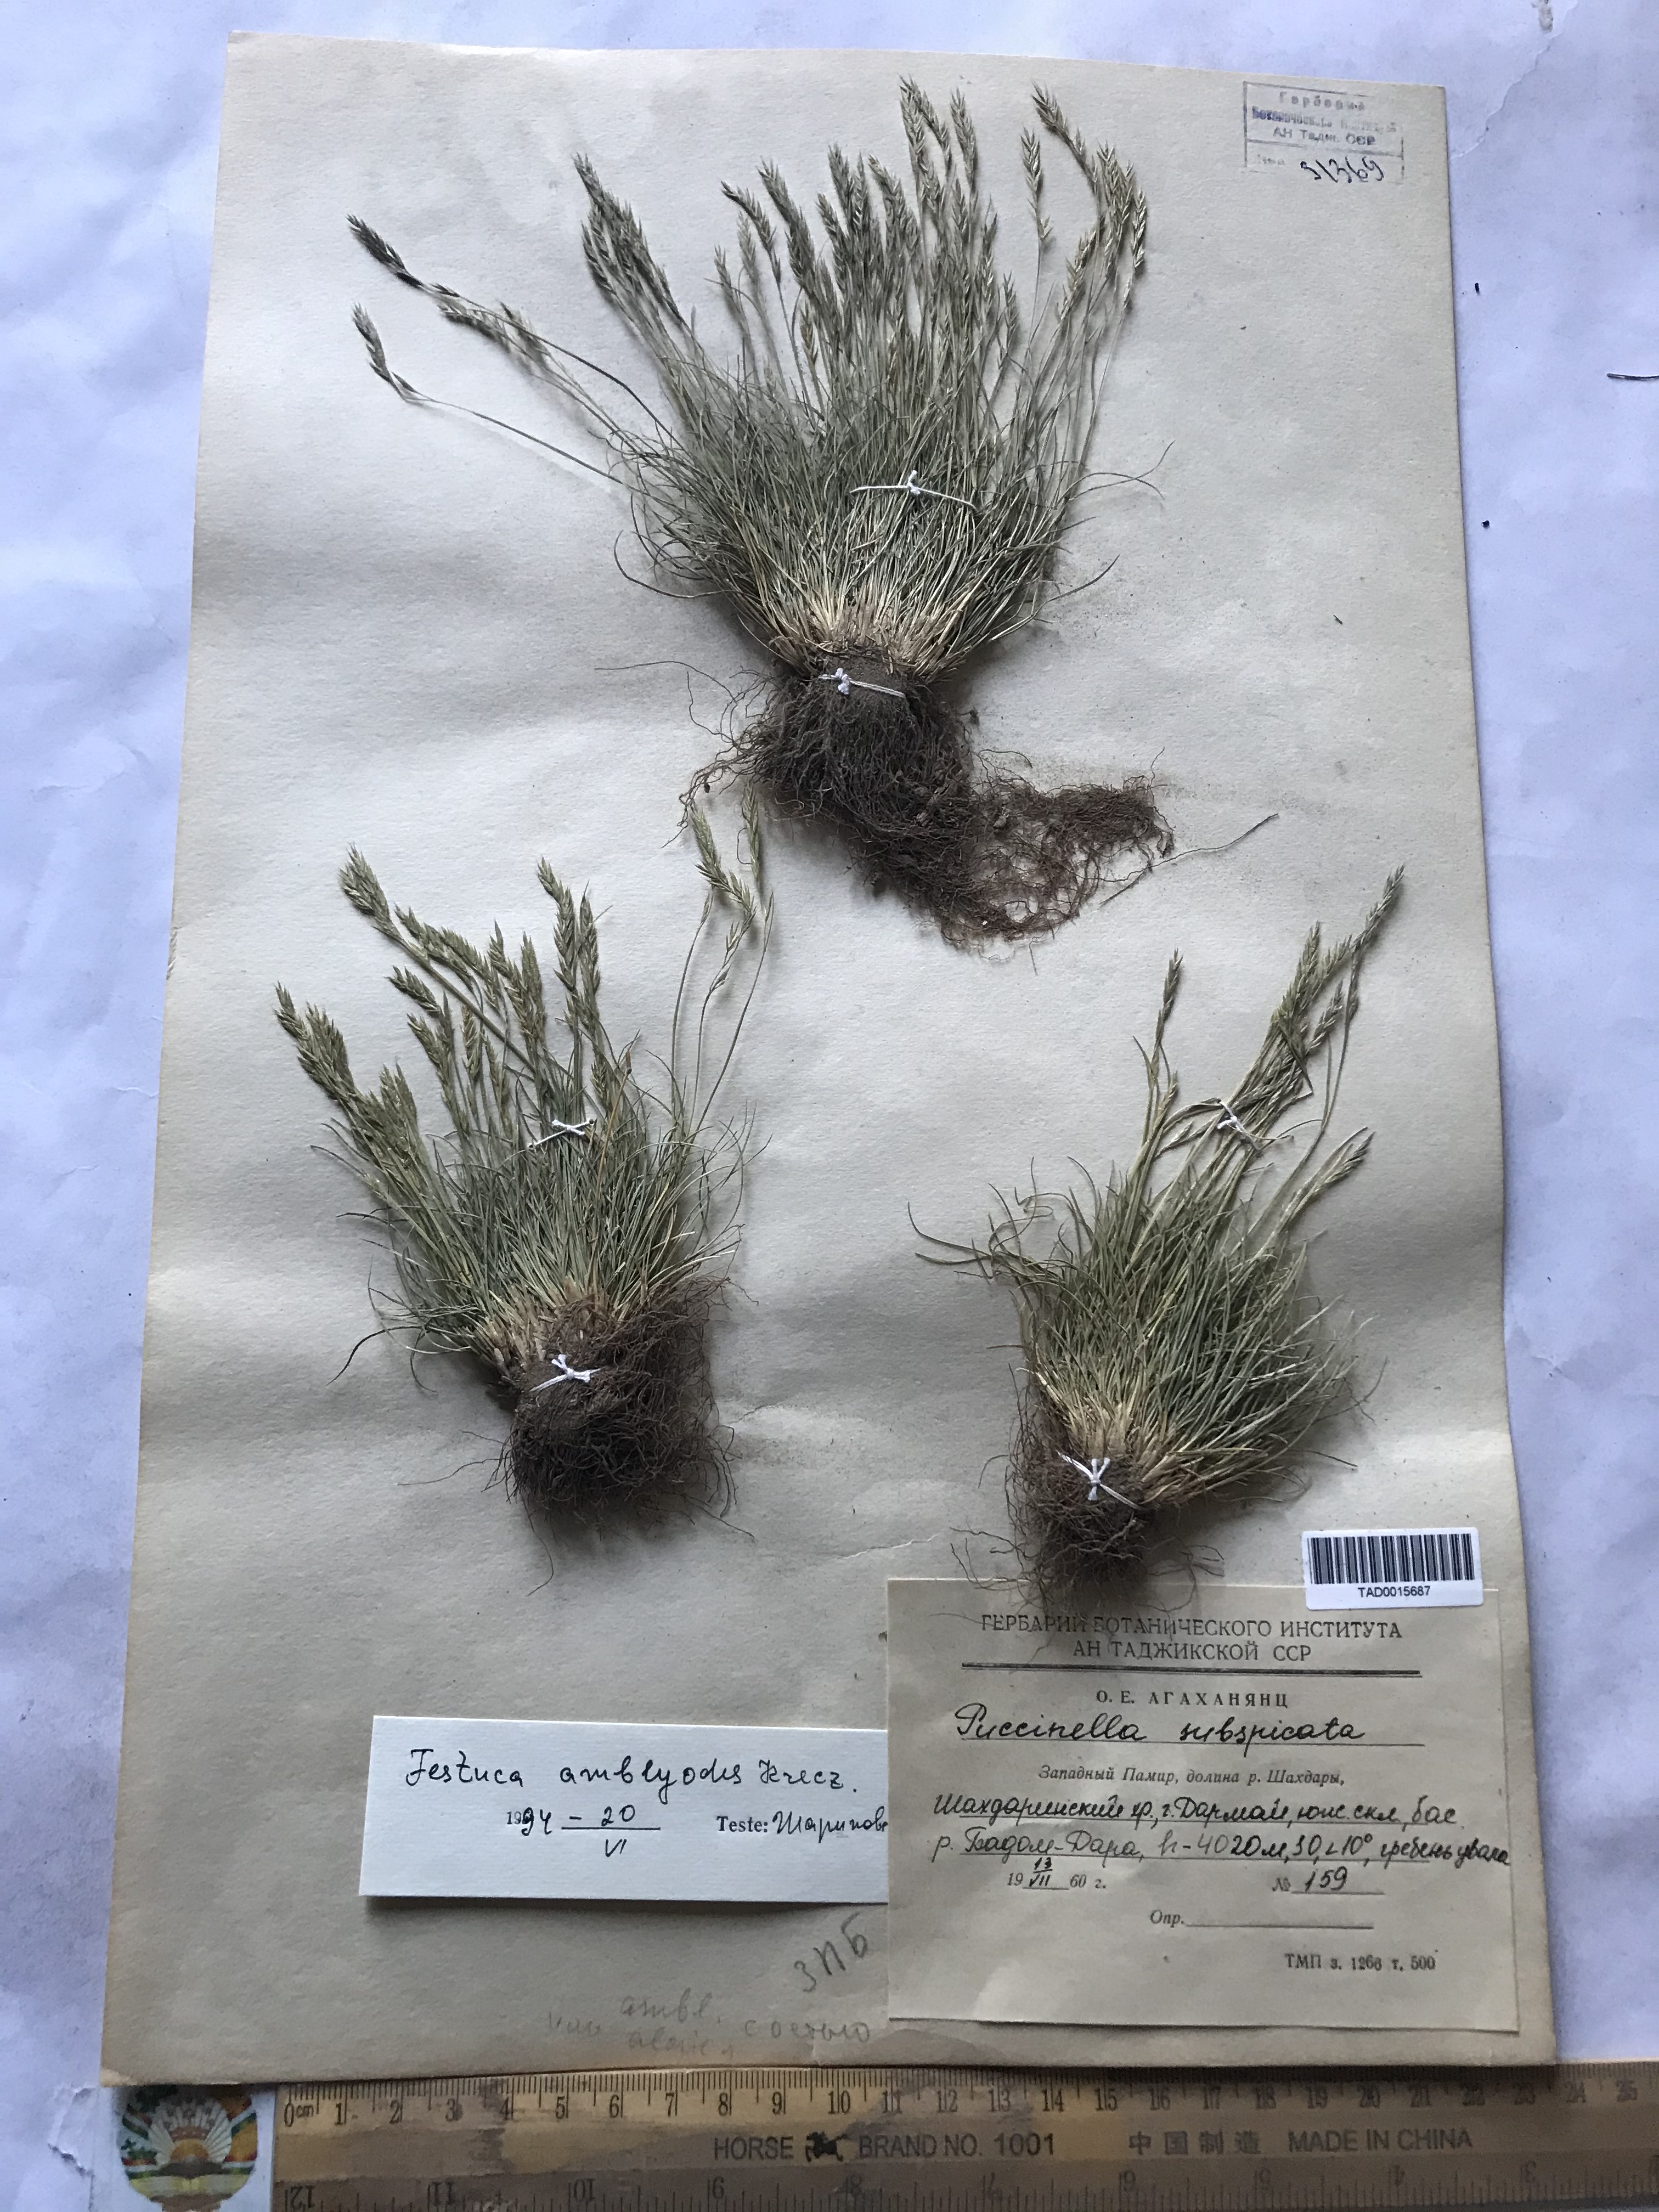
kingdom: Plantae
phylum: Tracheophyta
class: Liliopsida
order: Poales
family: Poaceae
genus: Festuca
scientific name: Festuca amblyodes
